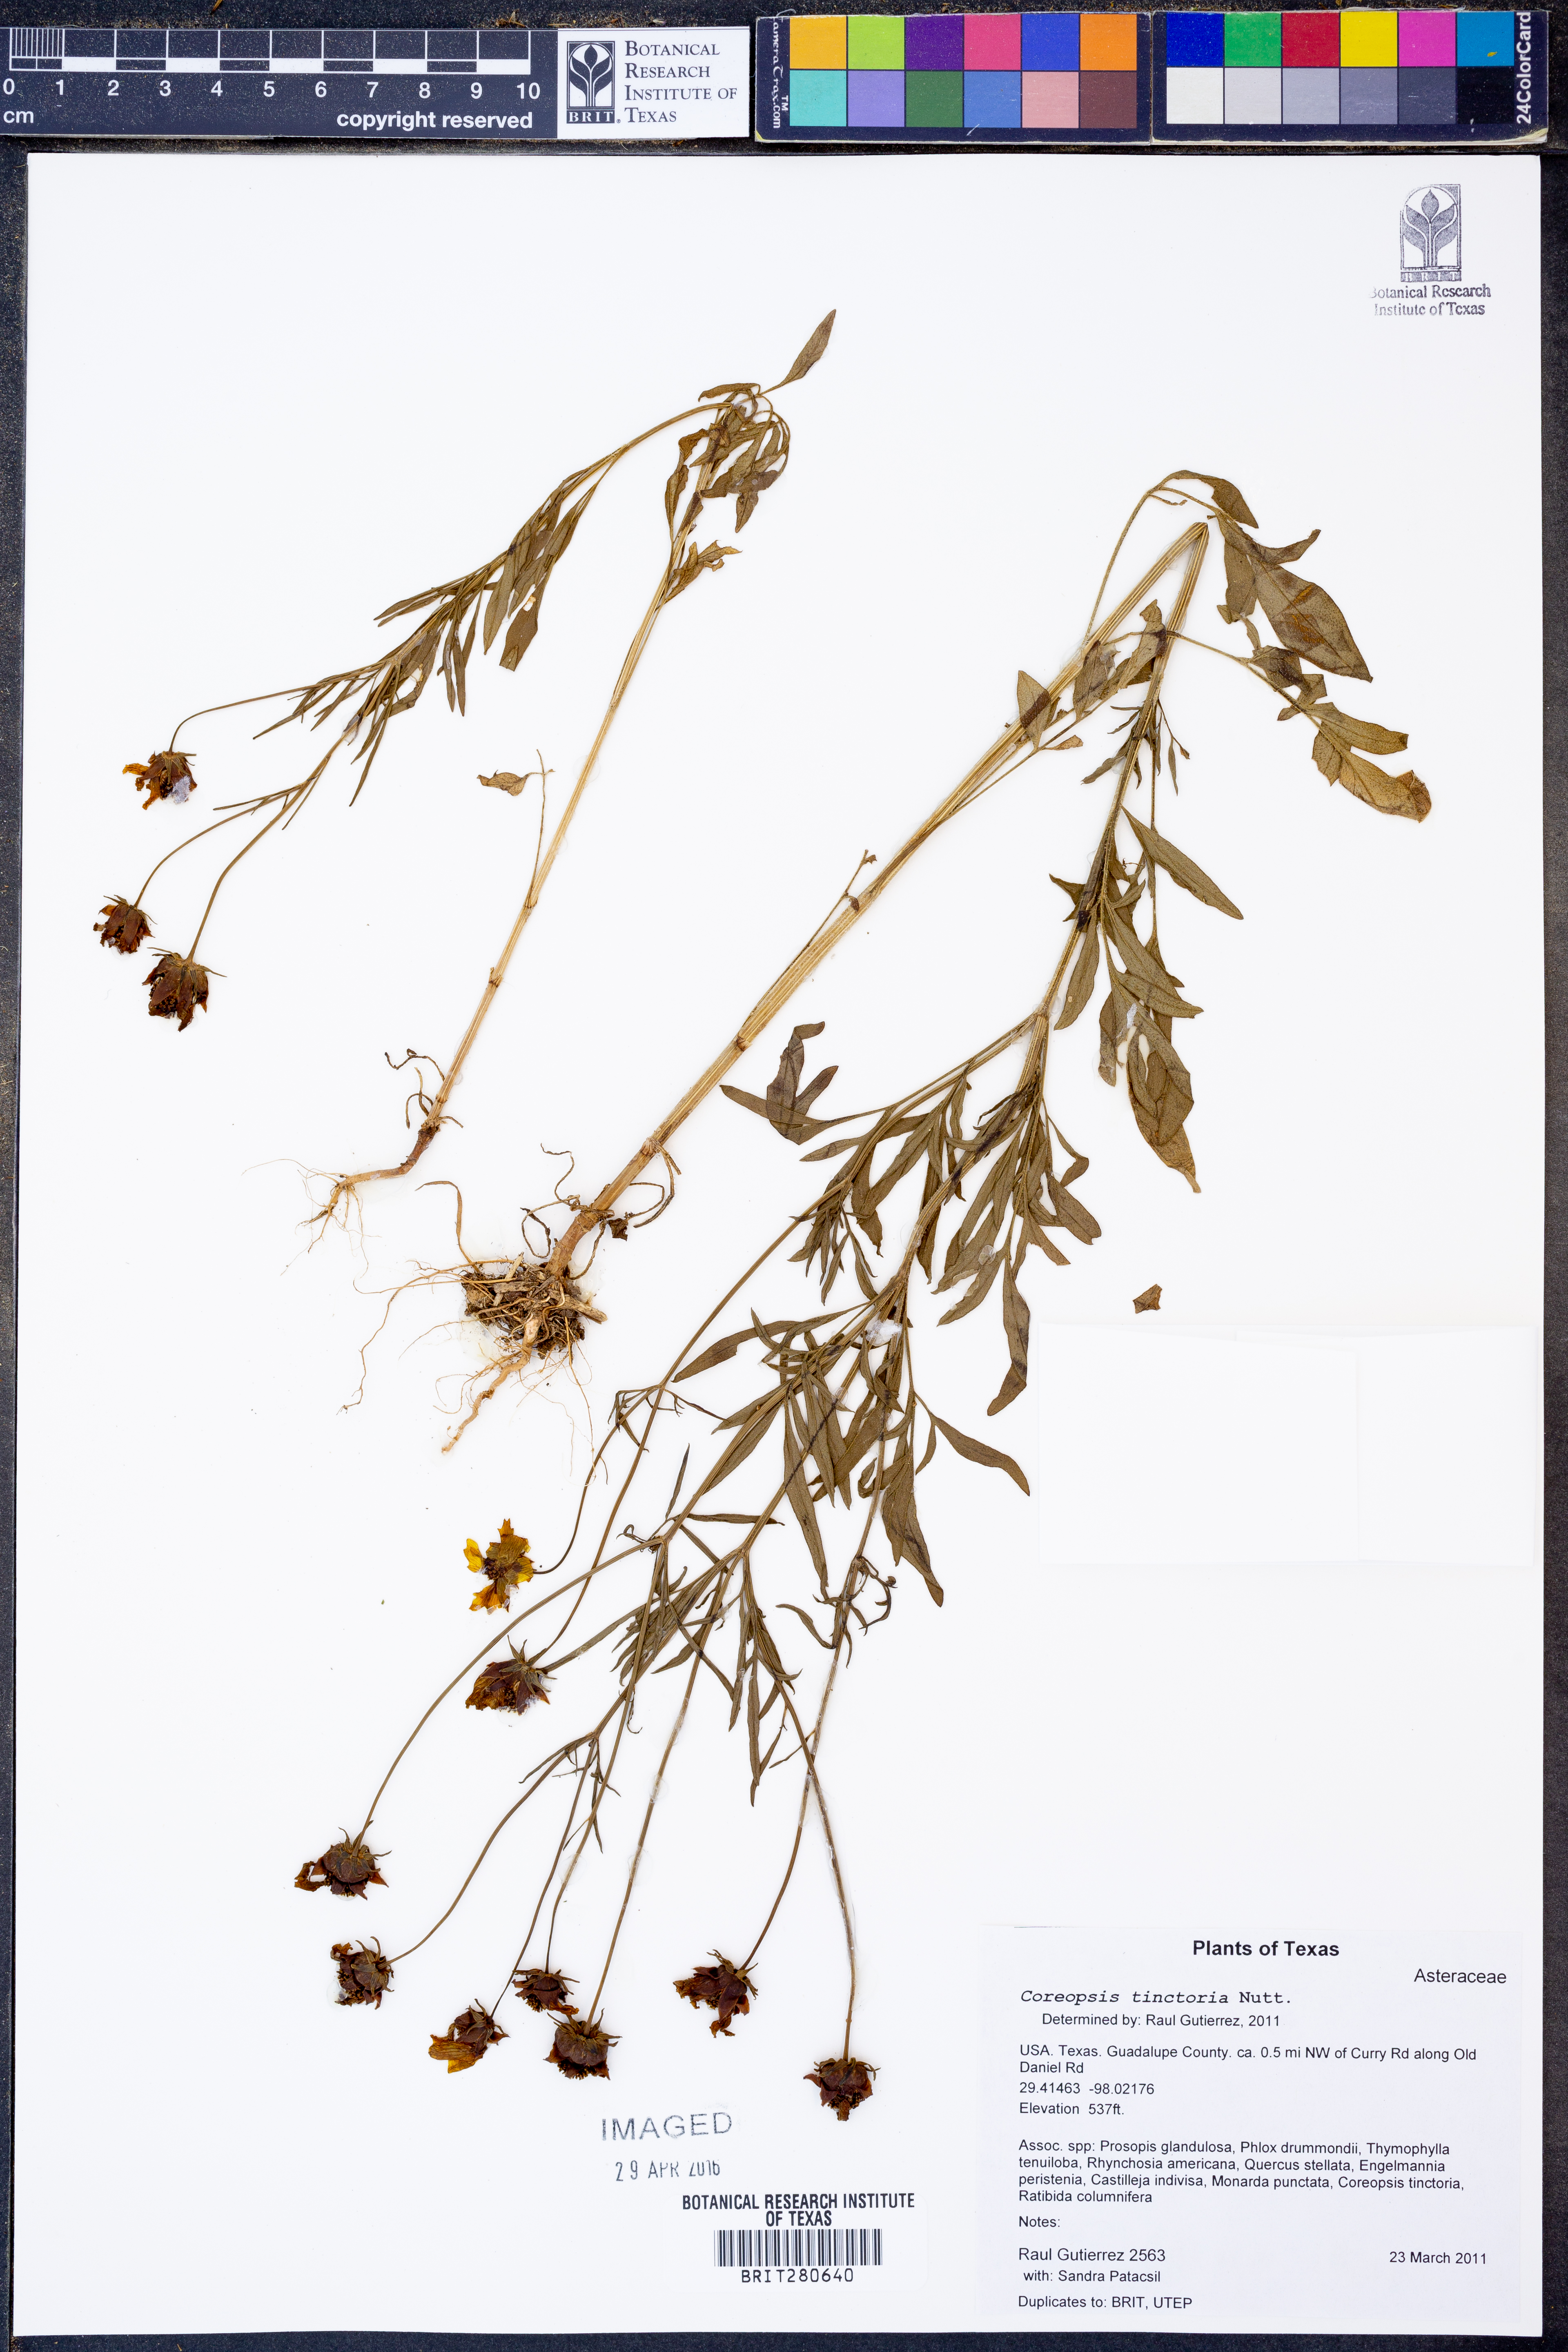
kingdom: Plantae
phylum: Tracheophyta
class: Magnoliopsida
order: Asterales
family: Asteraceae
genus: Coreopsis
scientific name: Coreopsis tinctoria
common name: Garden tickseed
